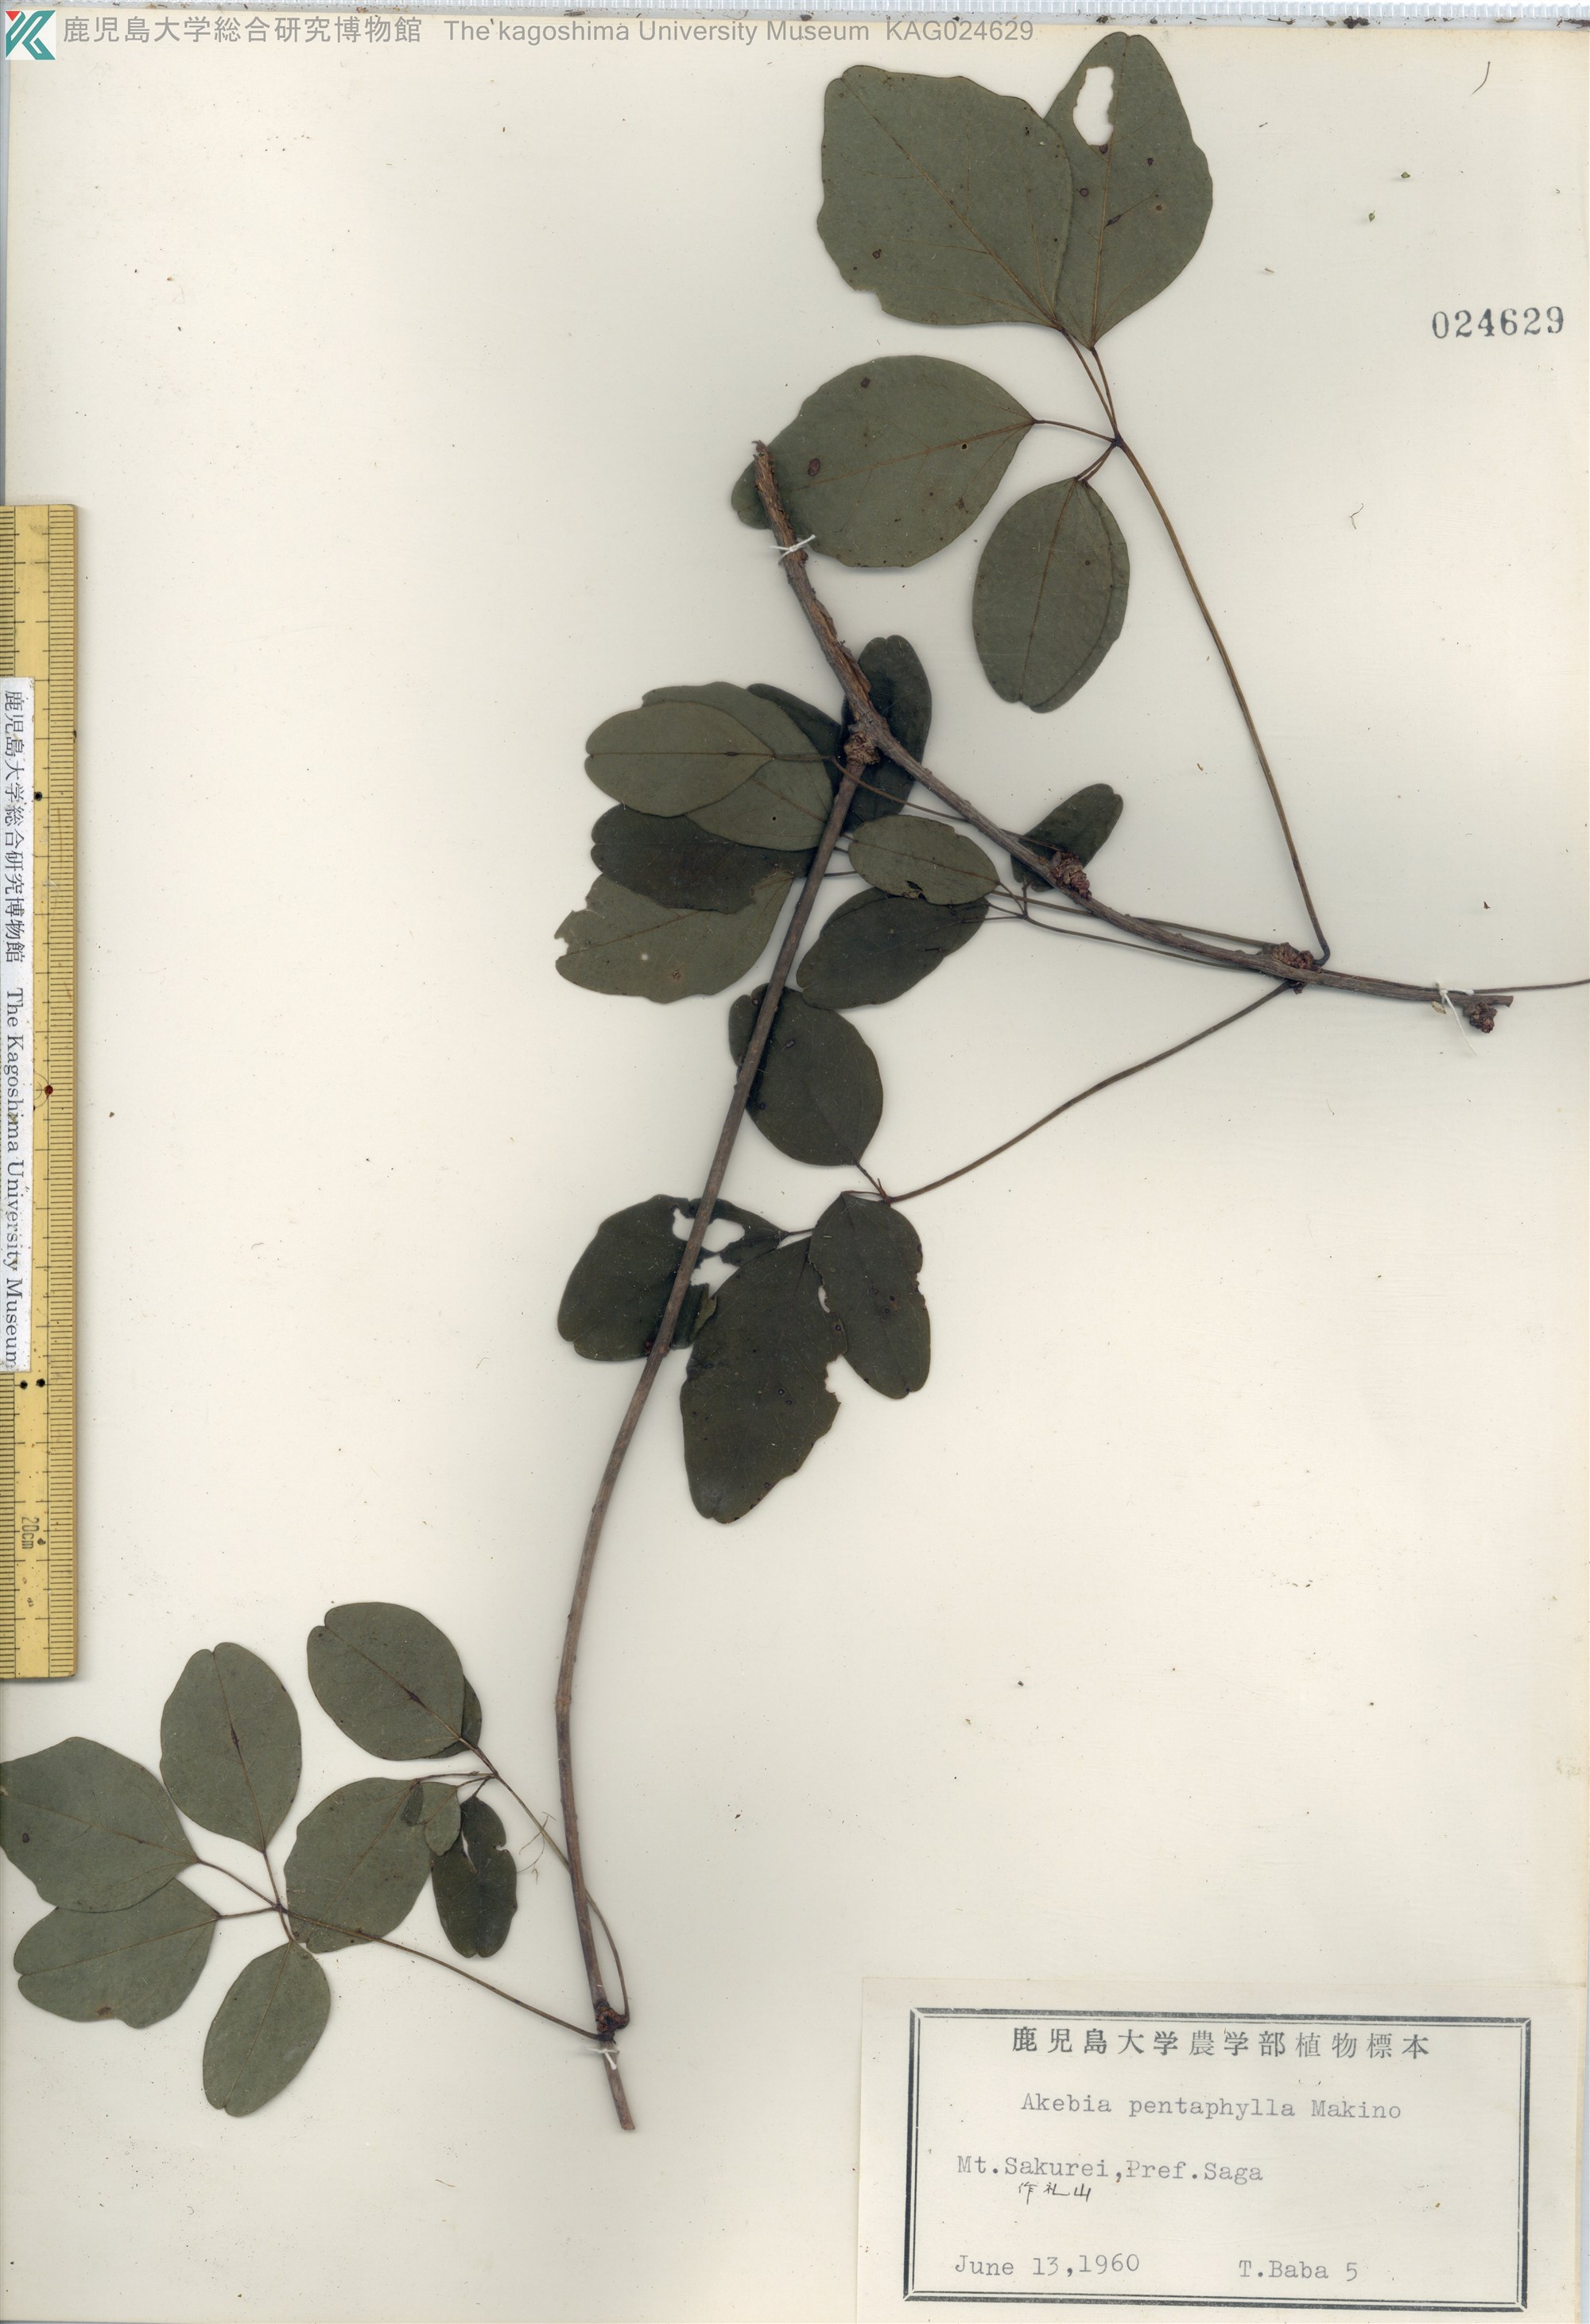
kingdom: Plantae
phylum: Tracheophyta
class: Magnoliopsida
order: Ranunculales
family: Lardizabalaceae
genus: Akebia
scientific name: Akebia pentaphylla
